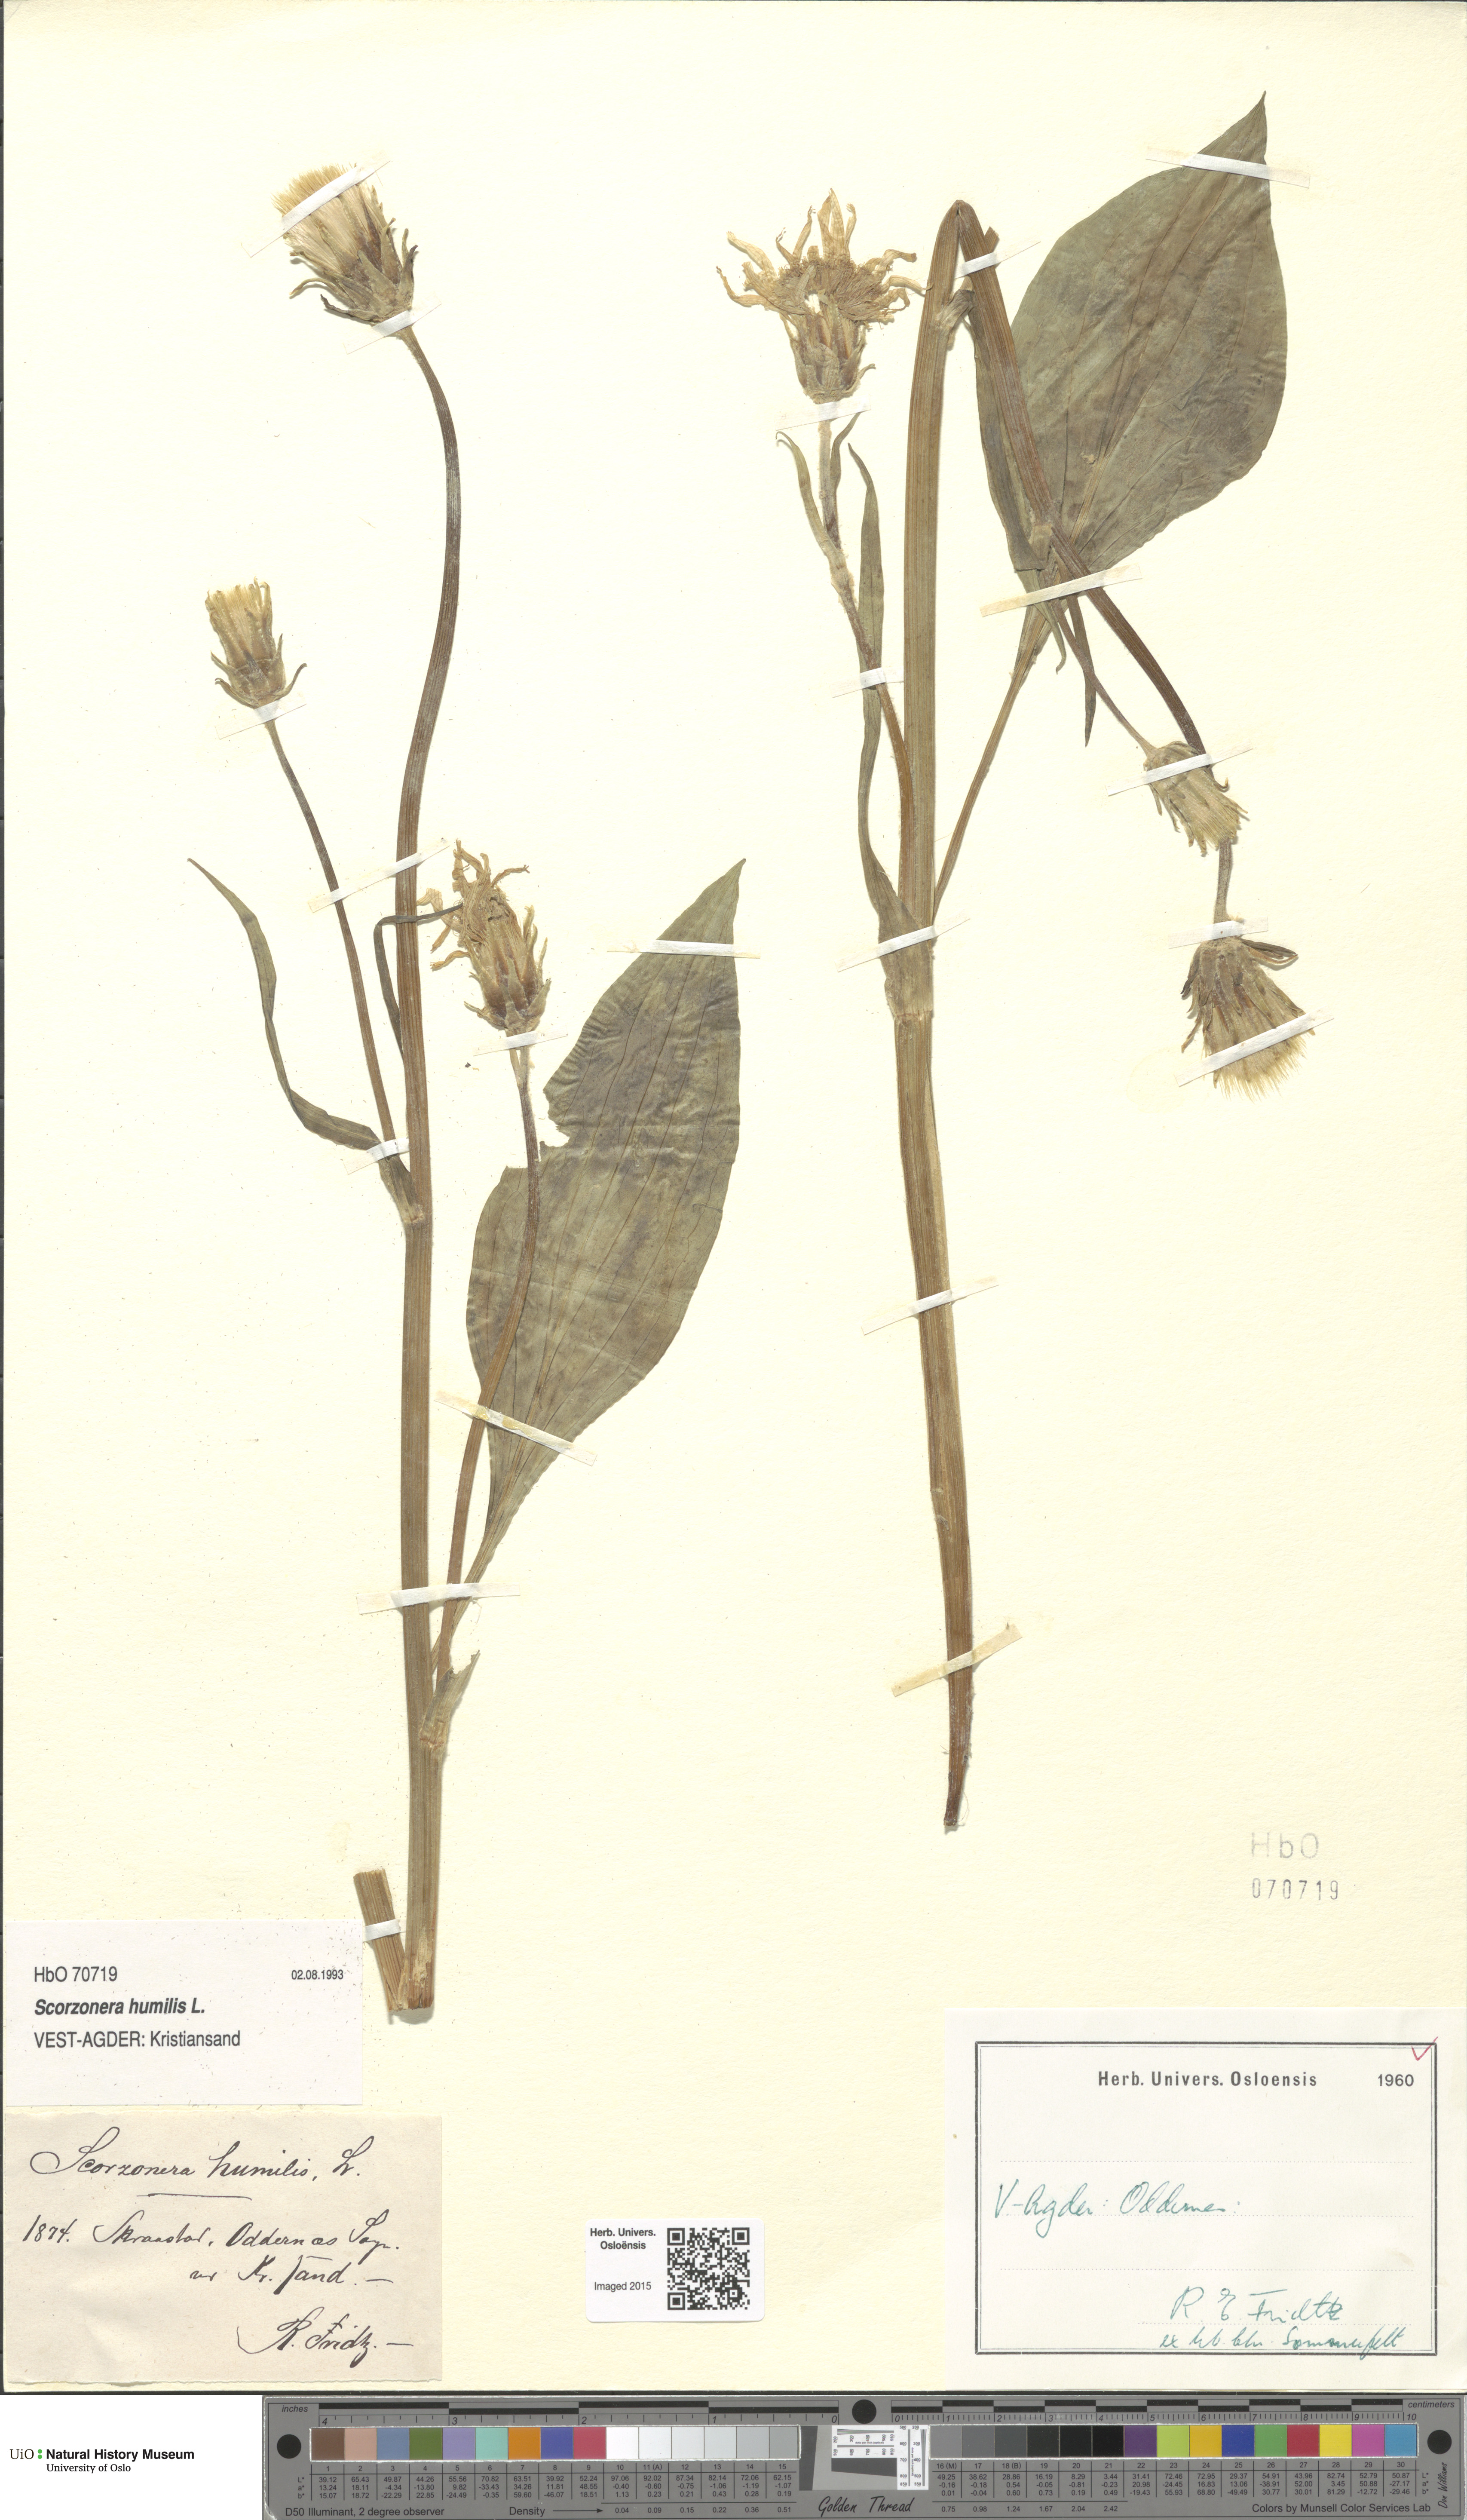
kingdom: Plantae
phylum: Tracheophyta
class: Magnoliopsida
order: Asterales
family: Asteraceae
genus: Scorzonera
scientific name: Scorzonera humilis
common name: Viper's-grass
